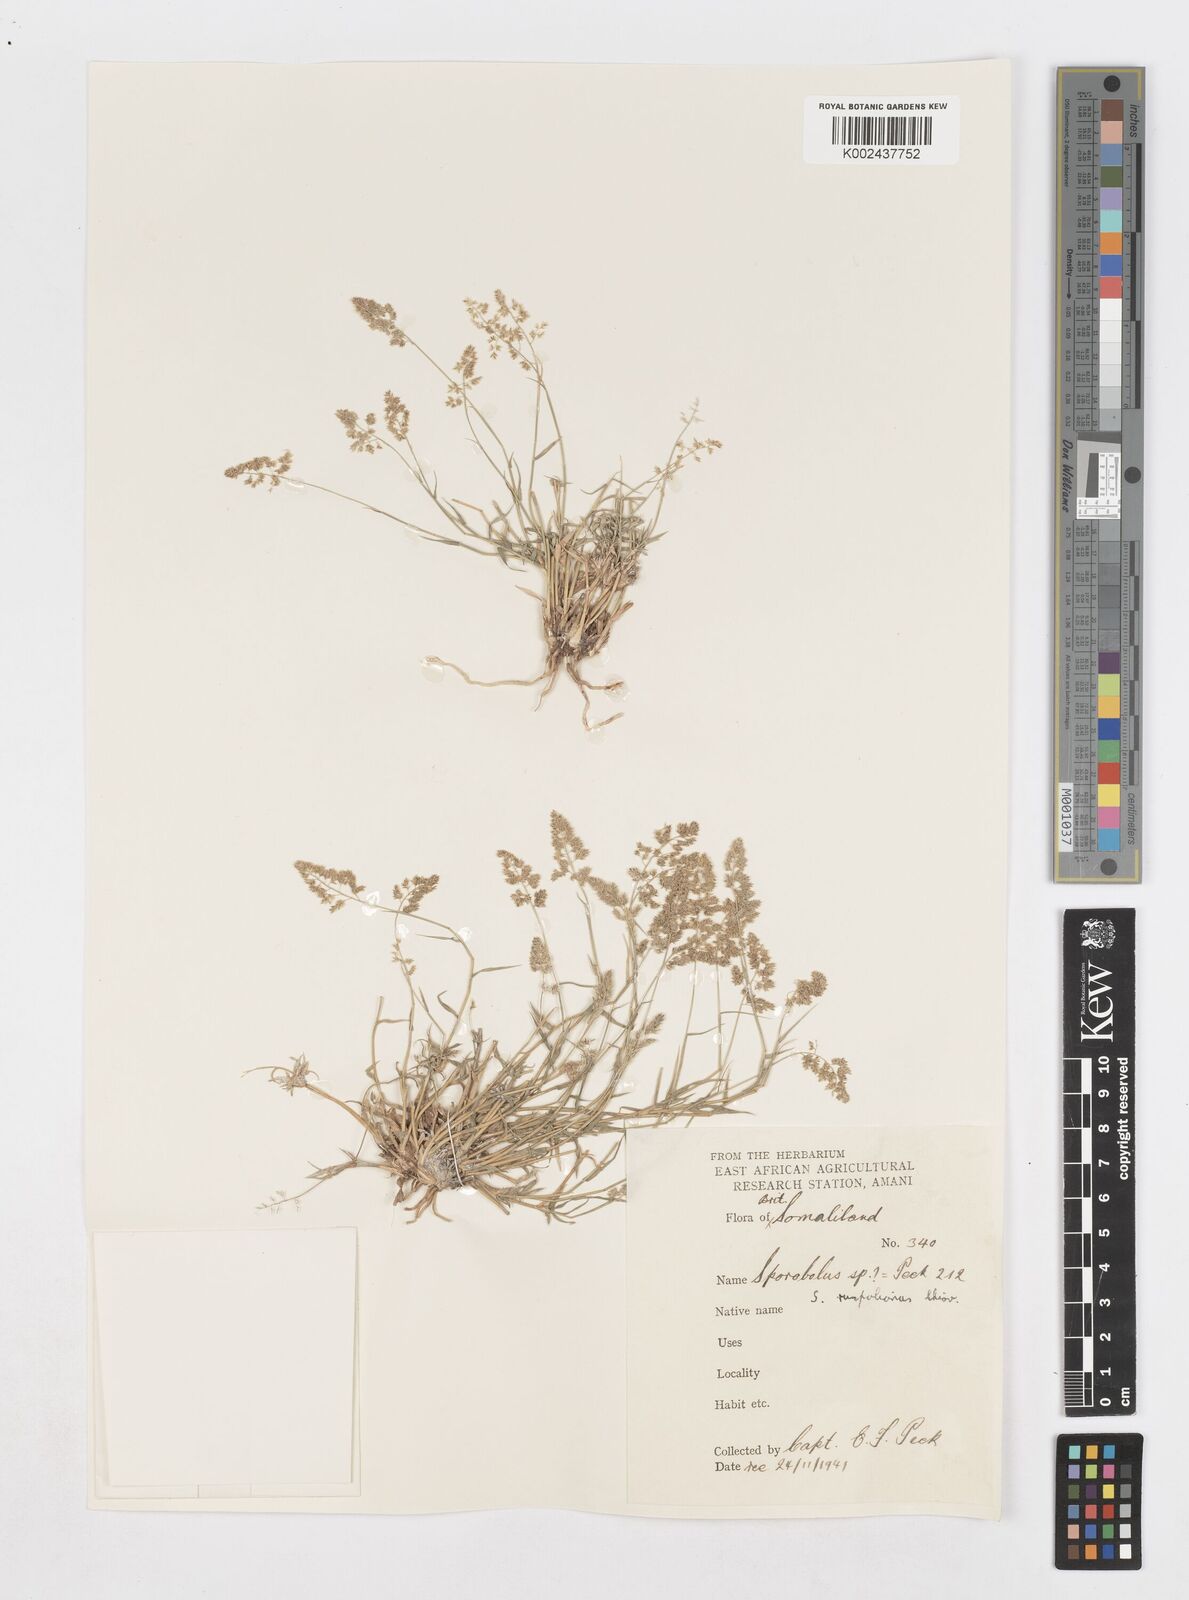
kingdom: Plantae
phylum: Tracheophyta
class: Liliopsida
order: Poales
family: Poaceae
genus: Sporobolus
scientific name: Sporobolus ruspolianus
